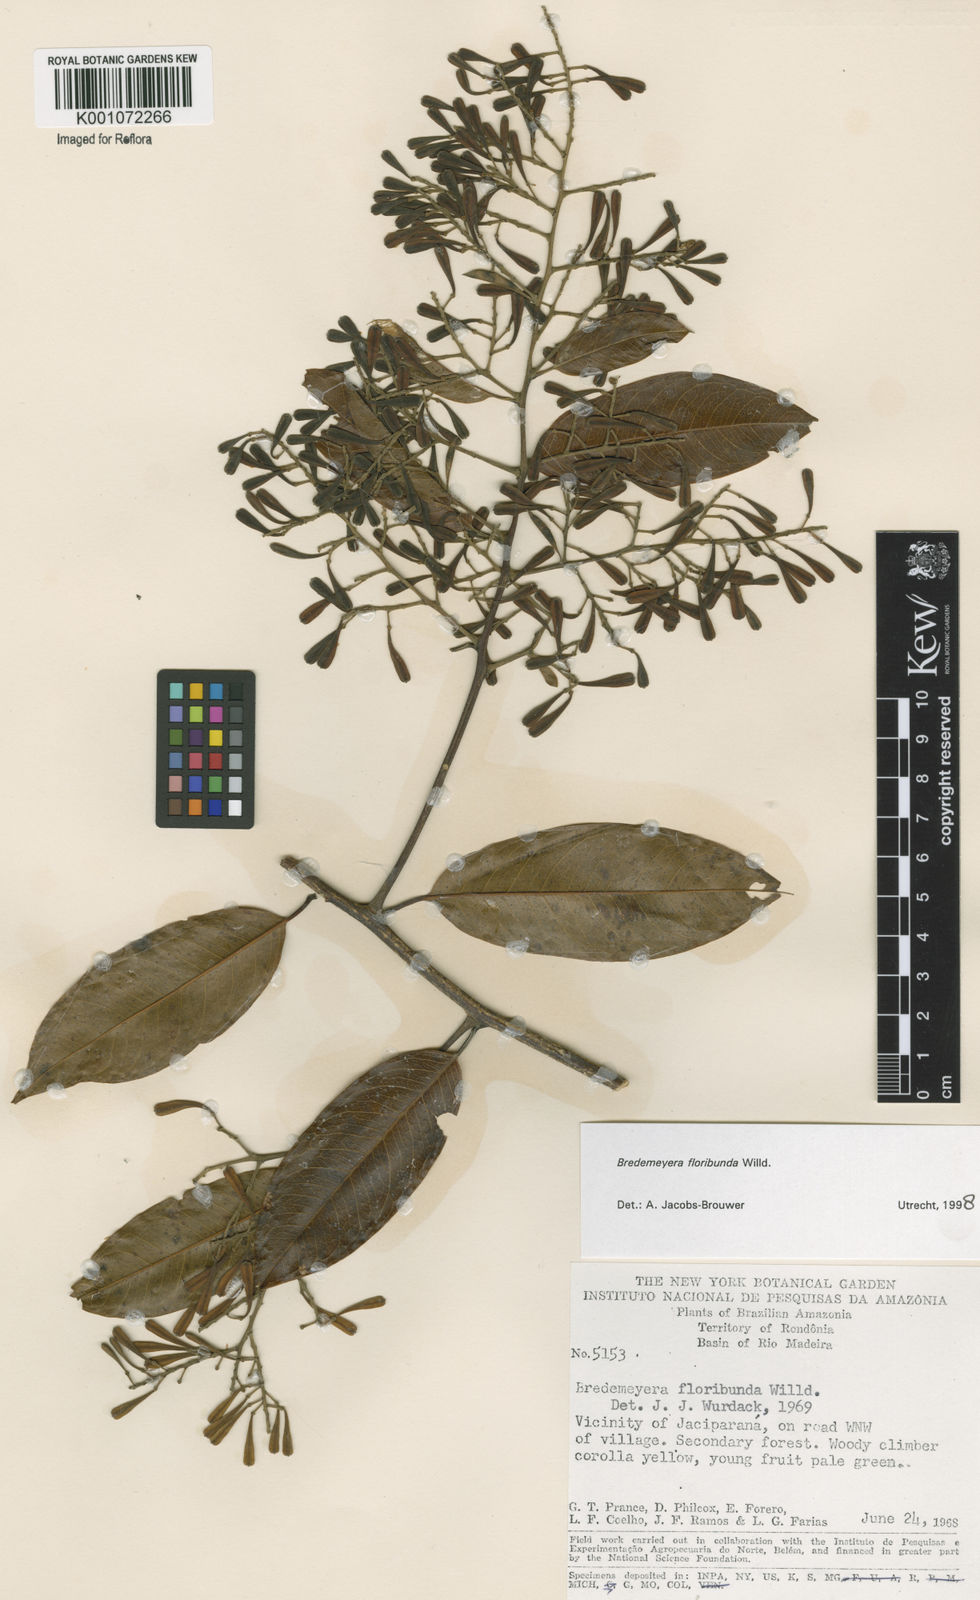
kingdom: Plantae
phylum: Tracheophyta
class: Magnoliopsida
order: Fabales
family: Polygalaceae
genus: Bredemeyera
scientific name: Bredemeyera floribunda
